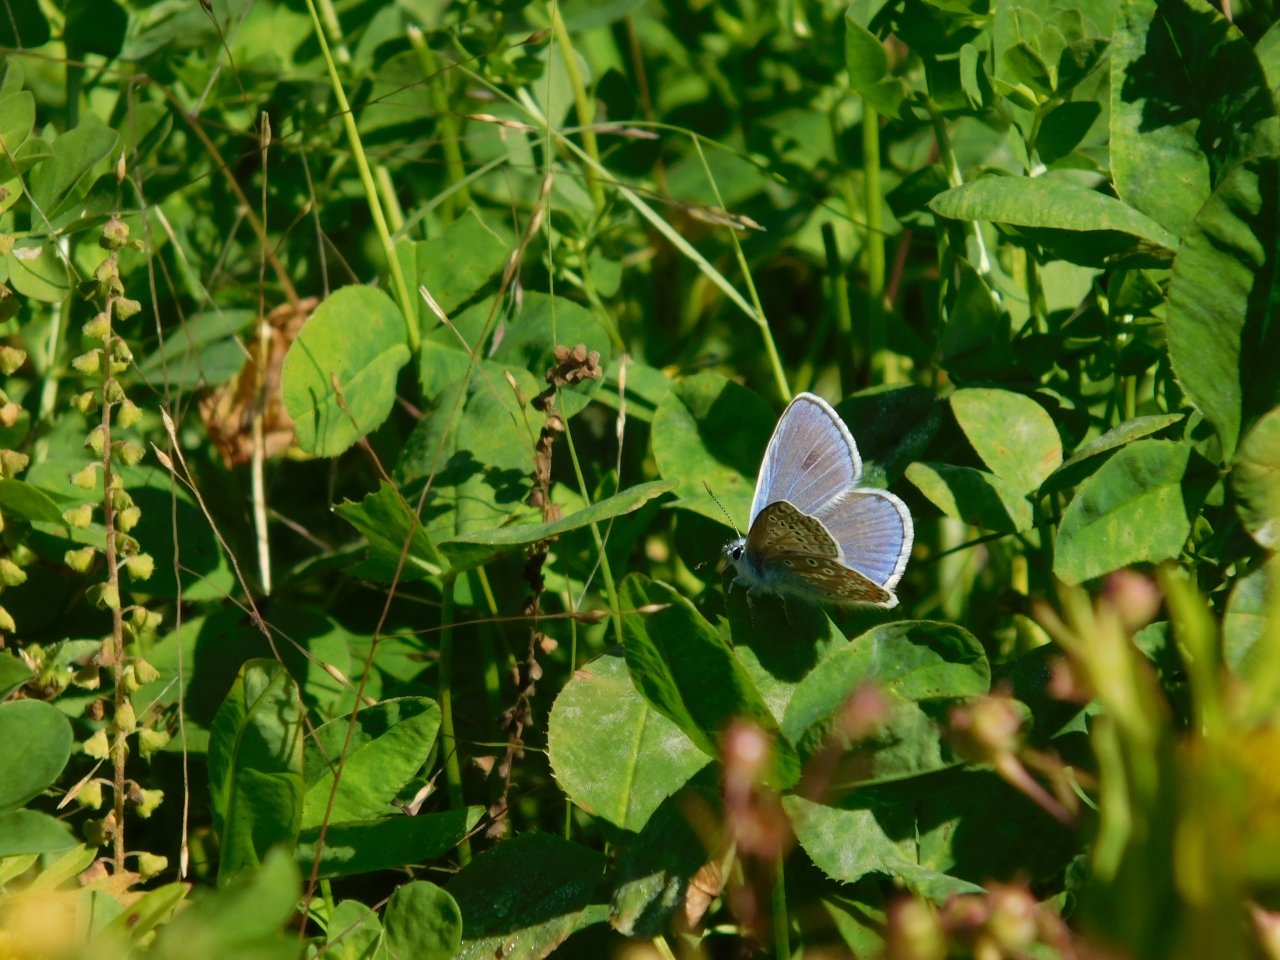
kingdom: Animalia
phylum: Arthropoda
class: Insecta
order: Lepidoptera
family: Lycaenidae
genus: Polyommatus
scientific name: Polyommatus icarus
